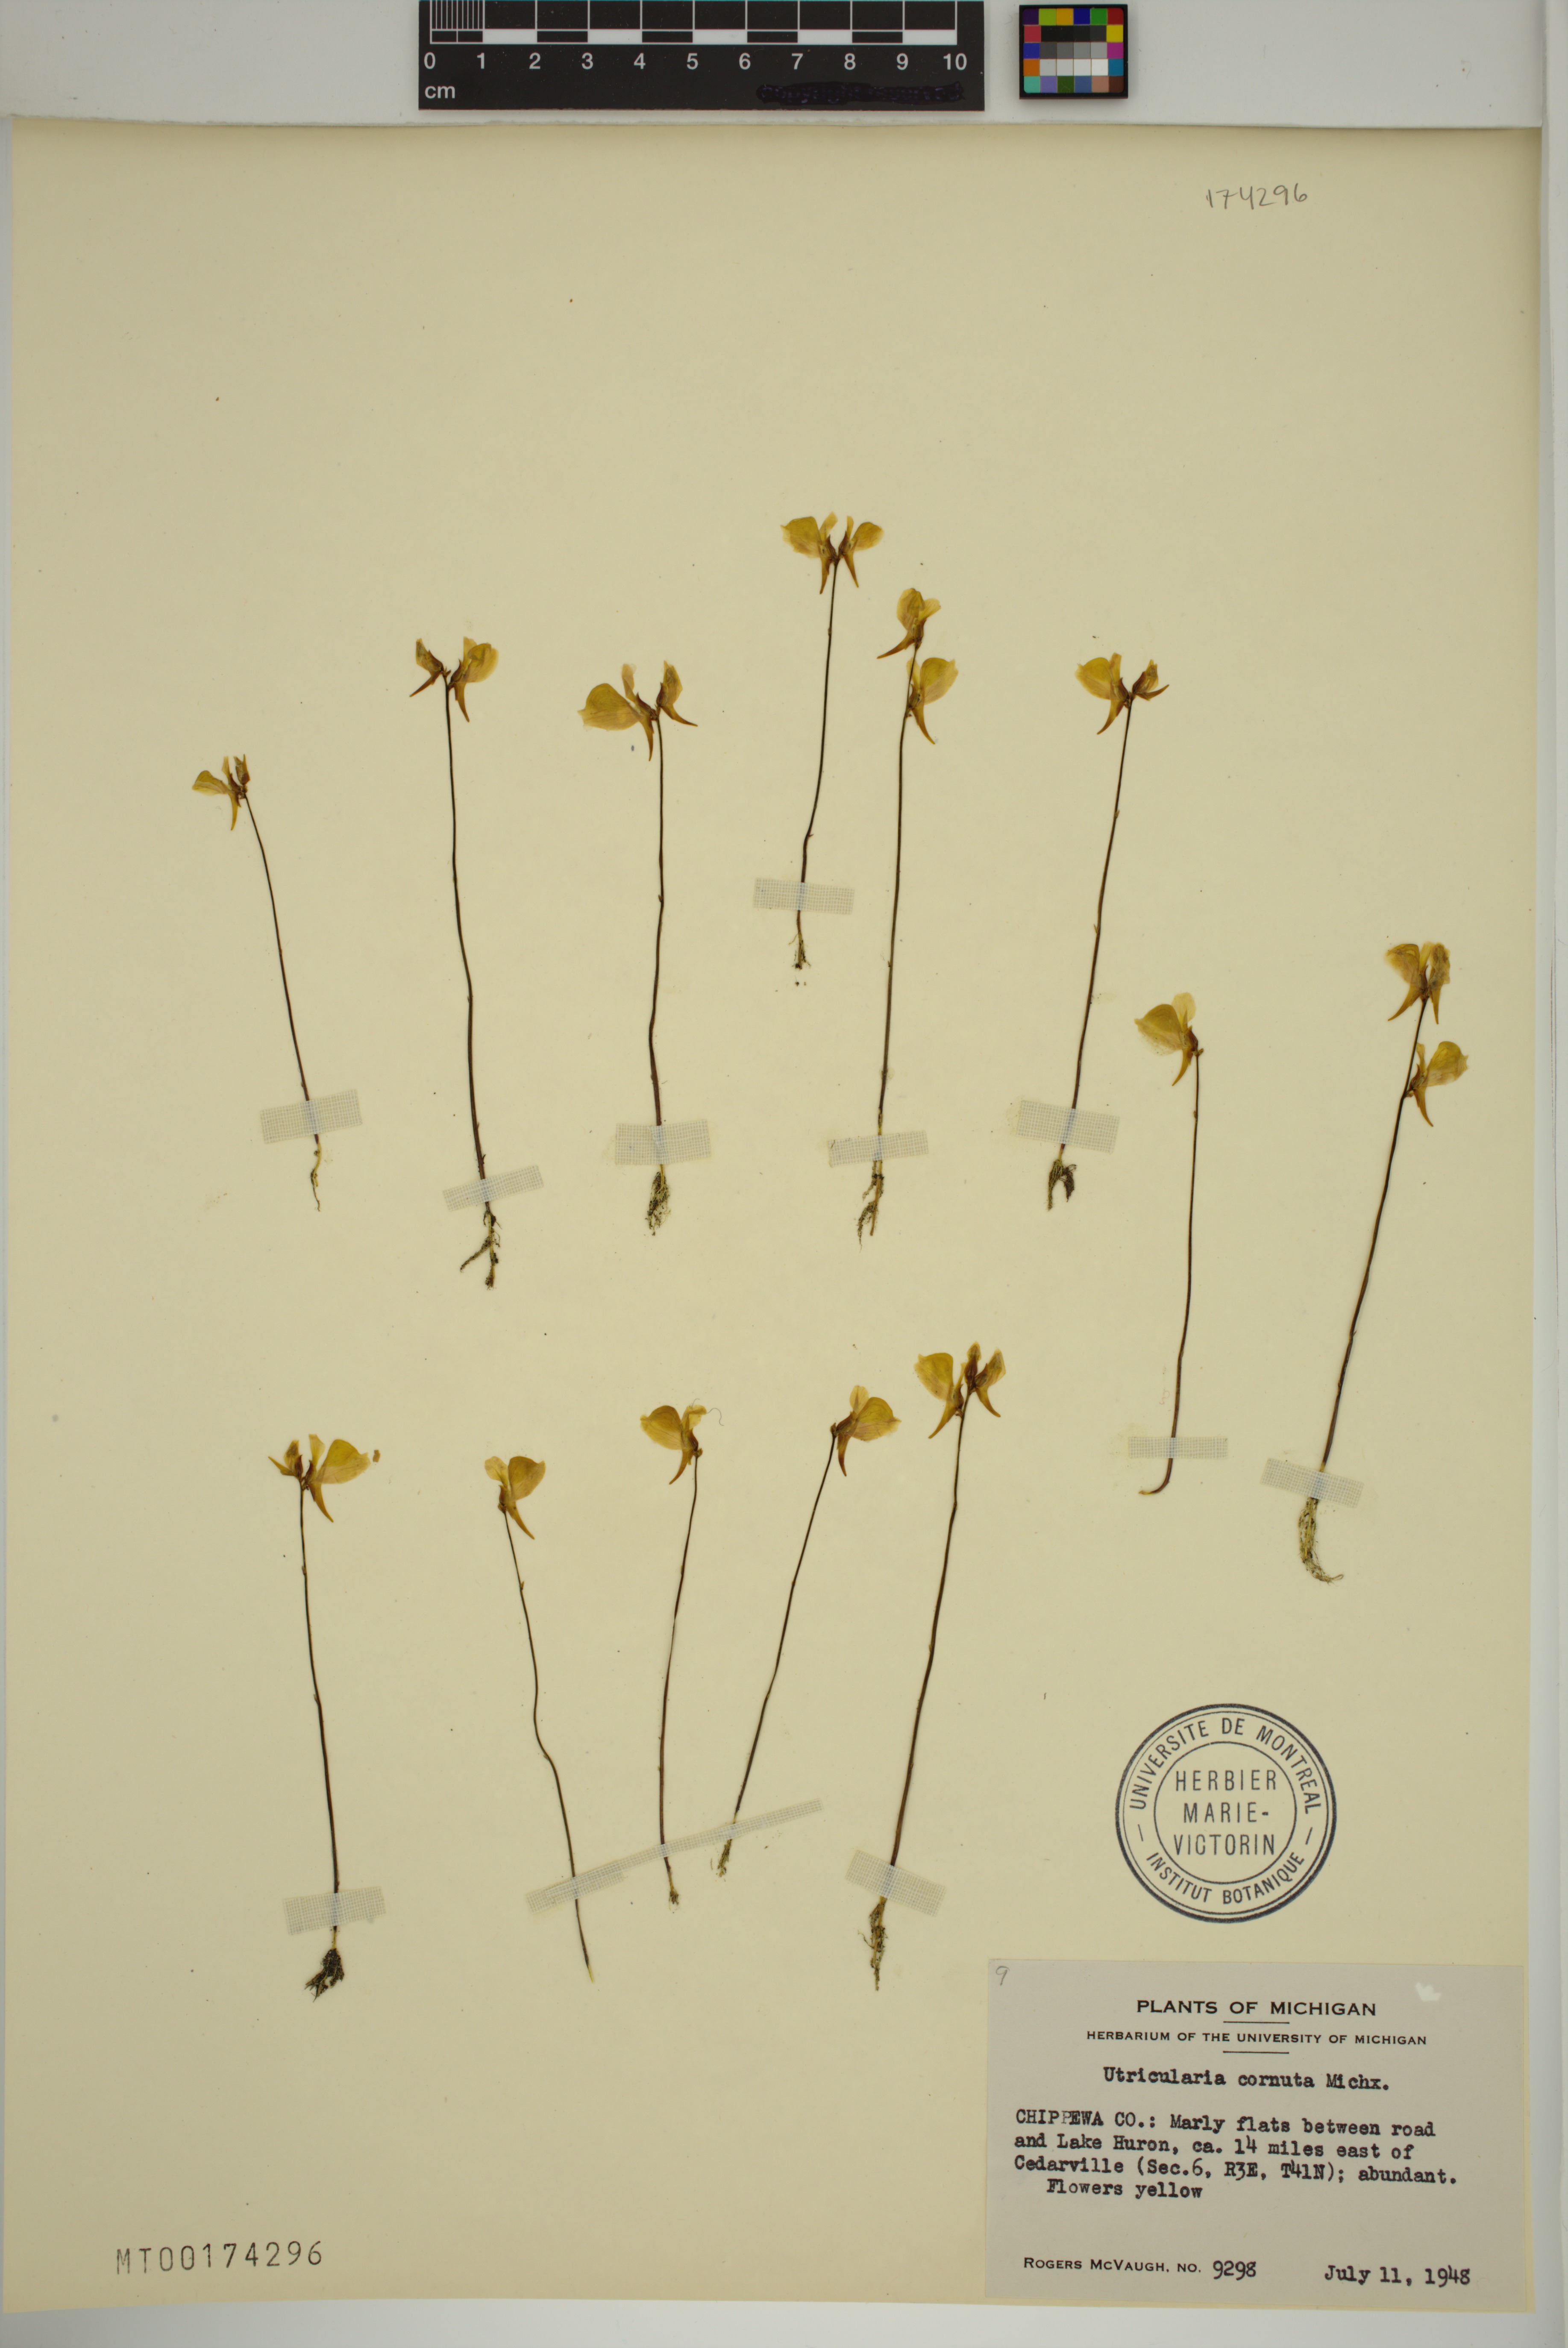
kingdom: Plantae
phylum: Tracheophyta
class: Magnoliopsida
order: Lamiales
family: Lentibulariaceae
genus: Utricularia
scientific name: Utricularia cornuta
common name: Horned bladderwort
